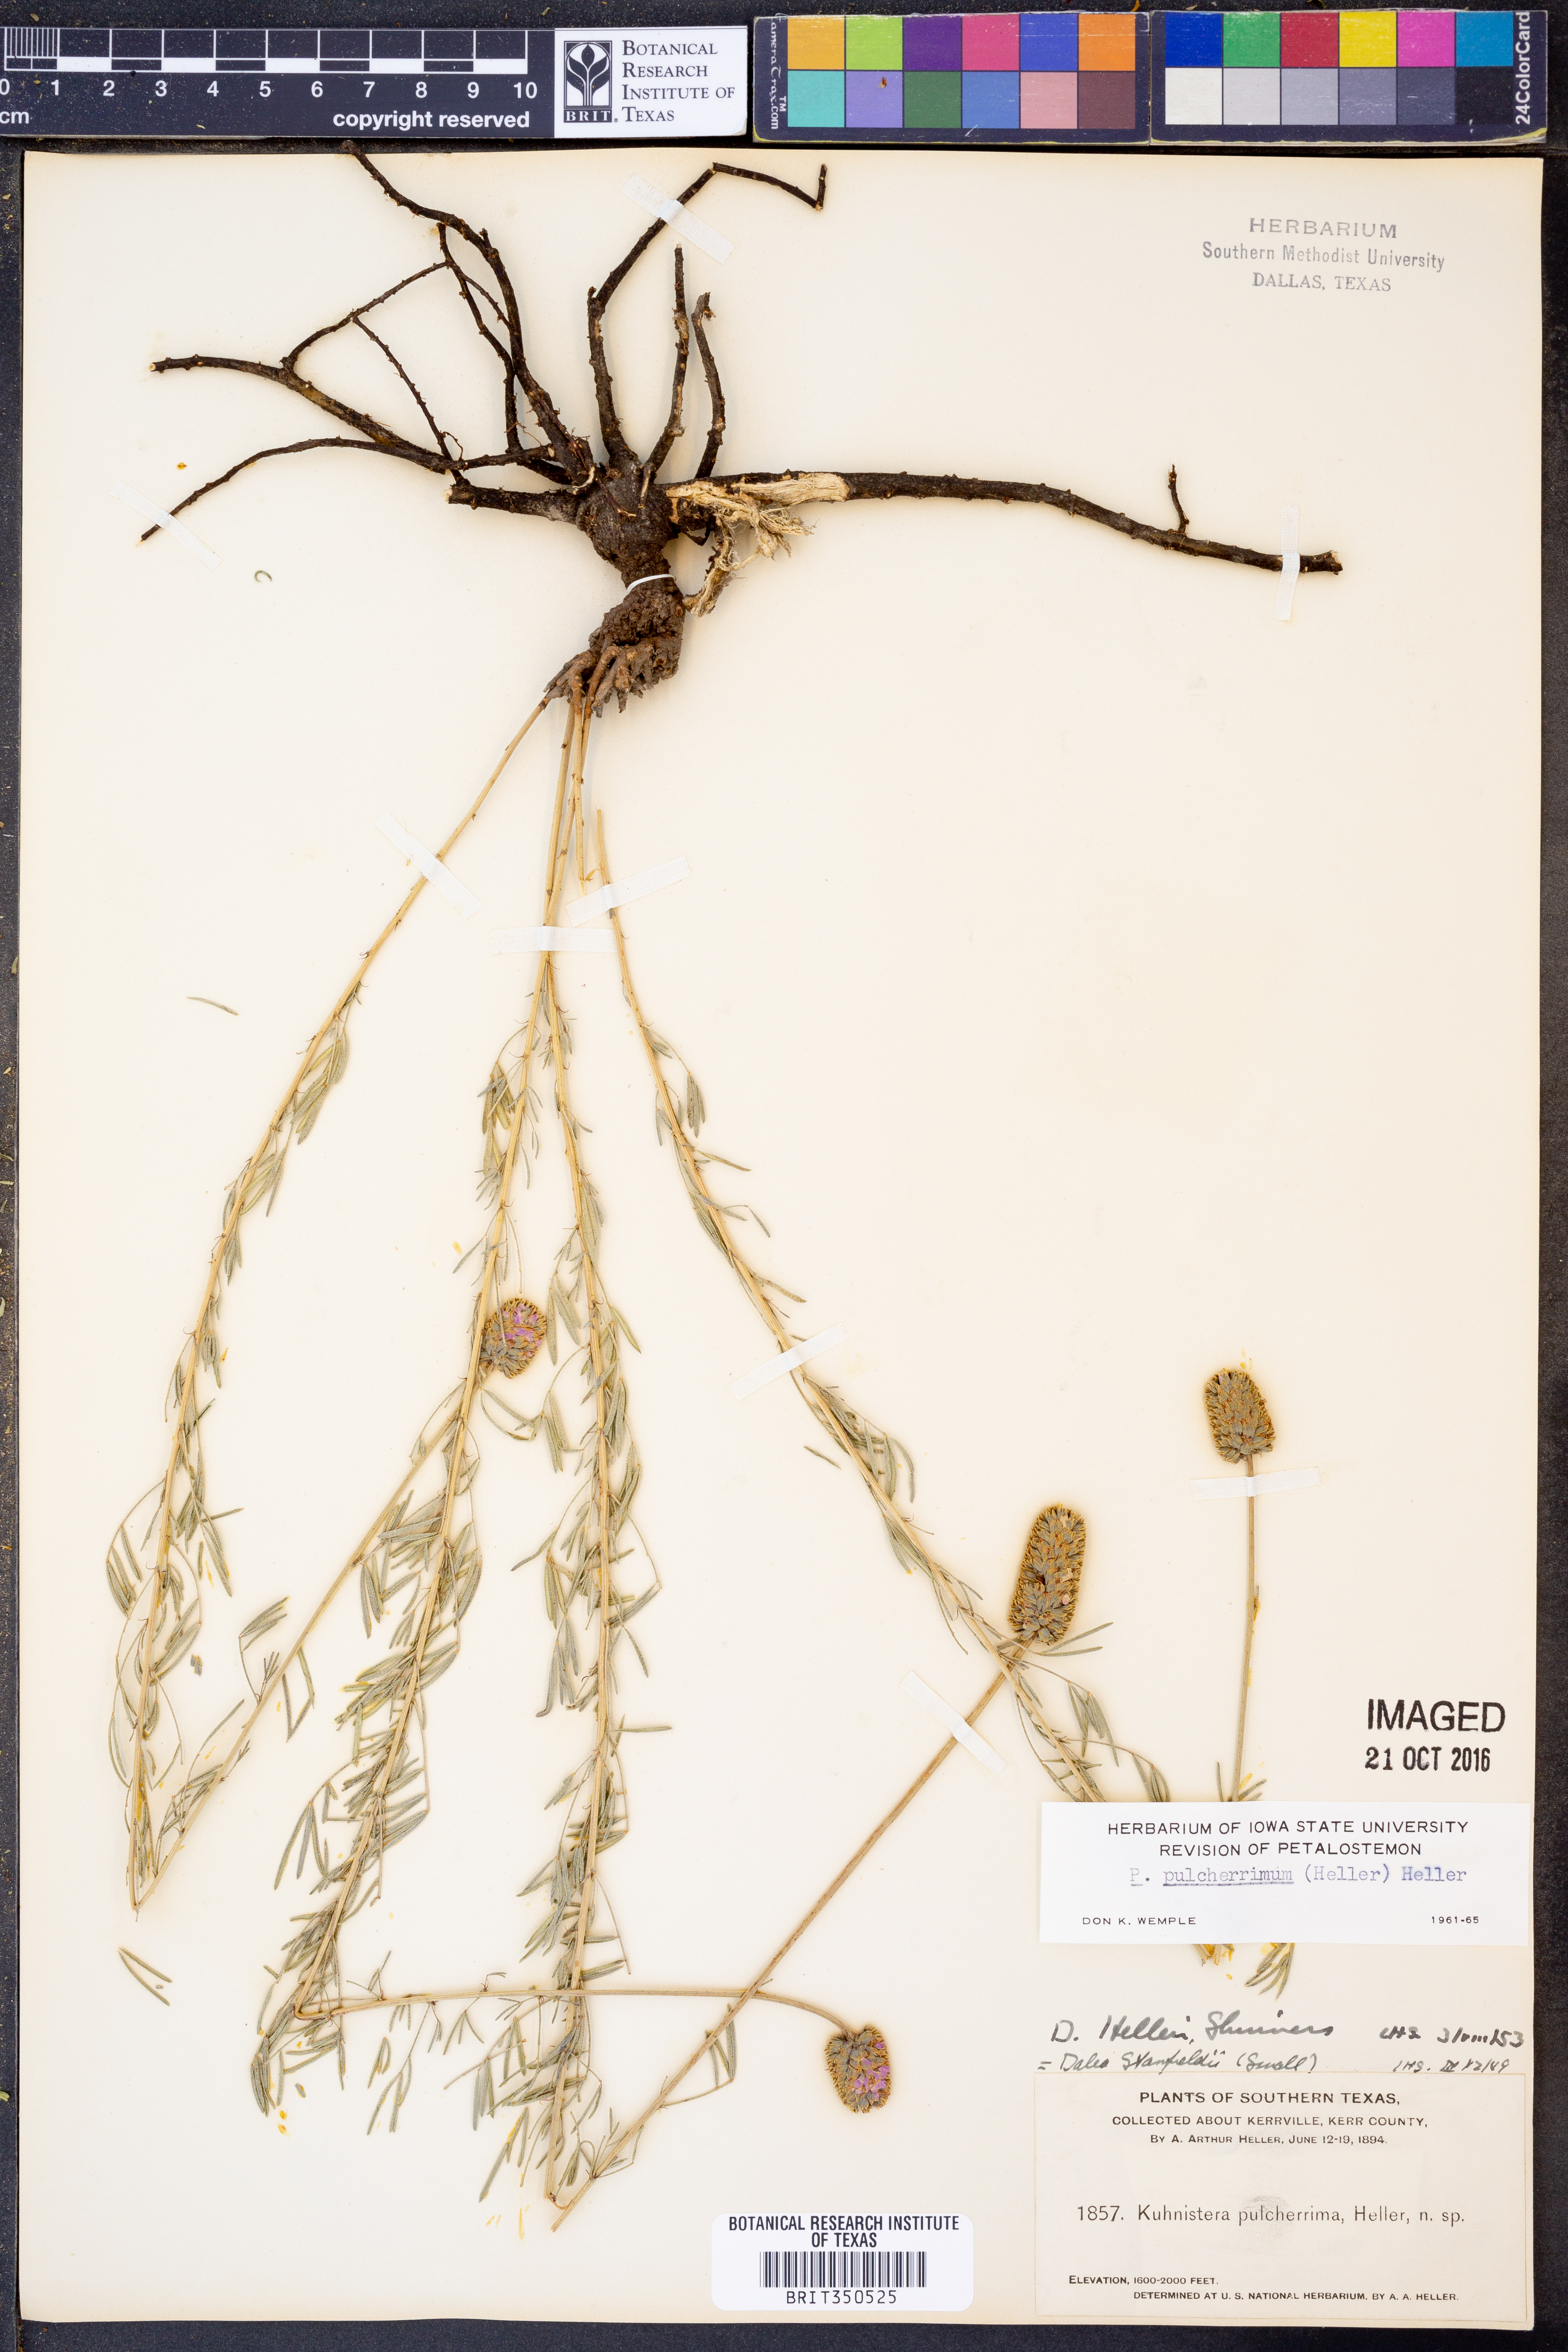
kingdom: Plantae
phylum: Tracheophyta
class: Magnoliopsida
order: Fabales
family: Fabaceae
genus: Dalea
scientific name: Dalea compacta
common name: Compact prairie-clover
